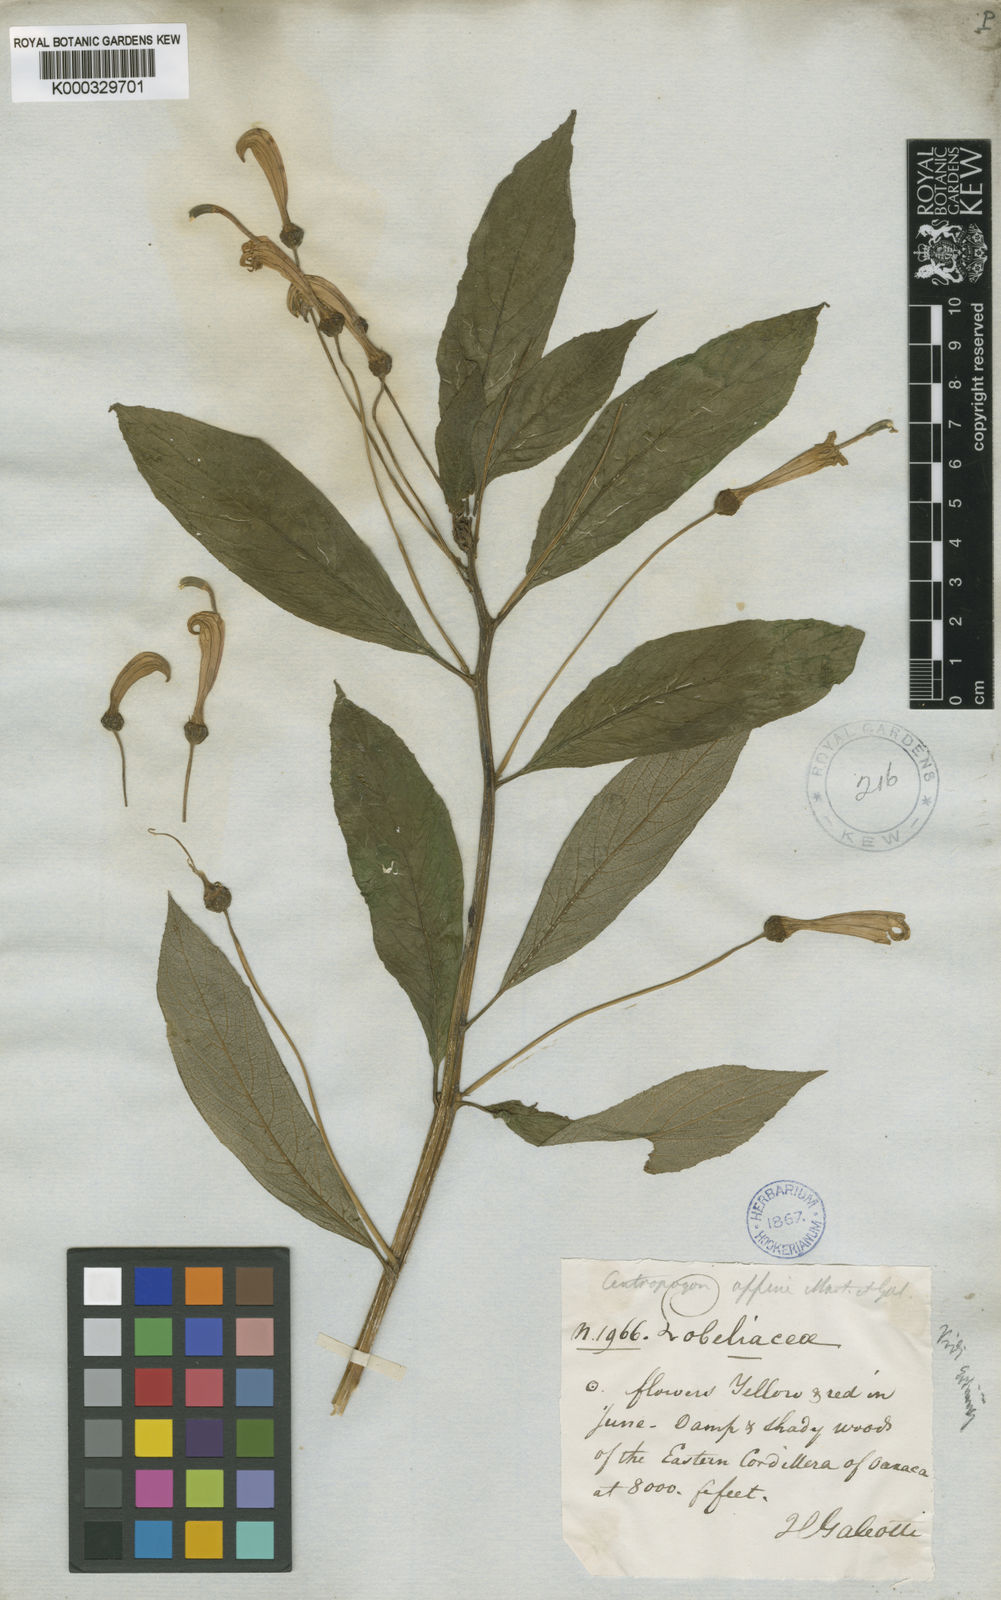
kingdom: Plantae
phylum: Tracheophyta
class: Magnoliopsida
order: Asterales
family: Campanulaceae
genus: Centropogon
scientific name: Centropogon grandidentatus
